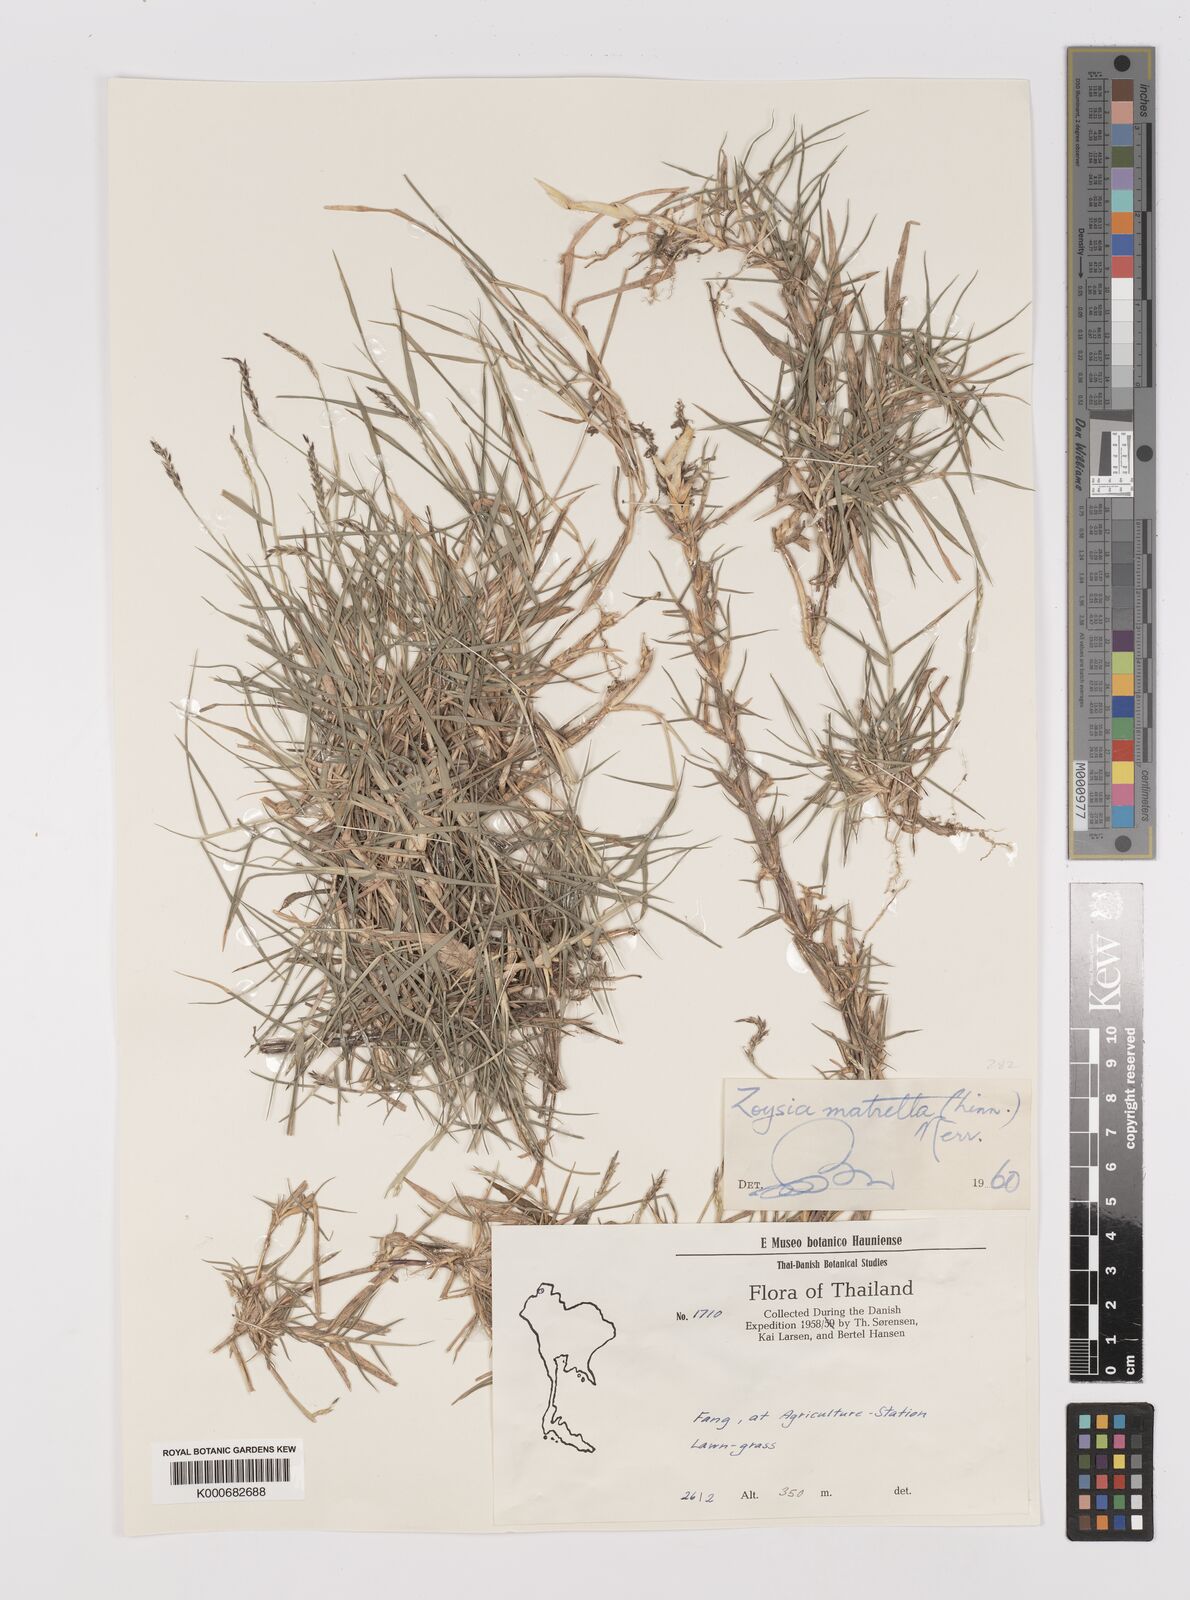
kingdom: Plantae
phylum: Tracheophyta
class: Liliopsida
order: Poales
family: Poaceae
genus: Zoysia
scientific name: Zoysia matrella
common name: Manila grass
